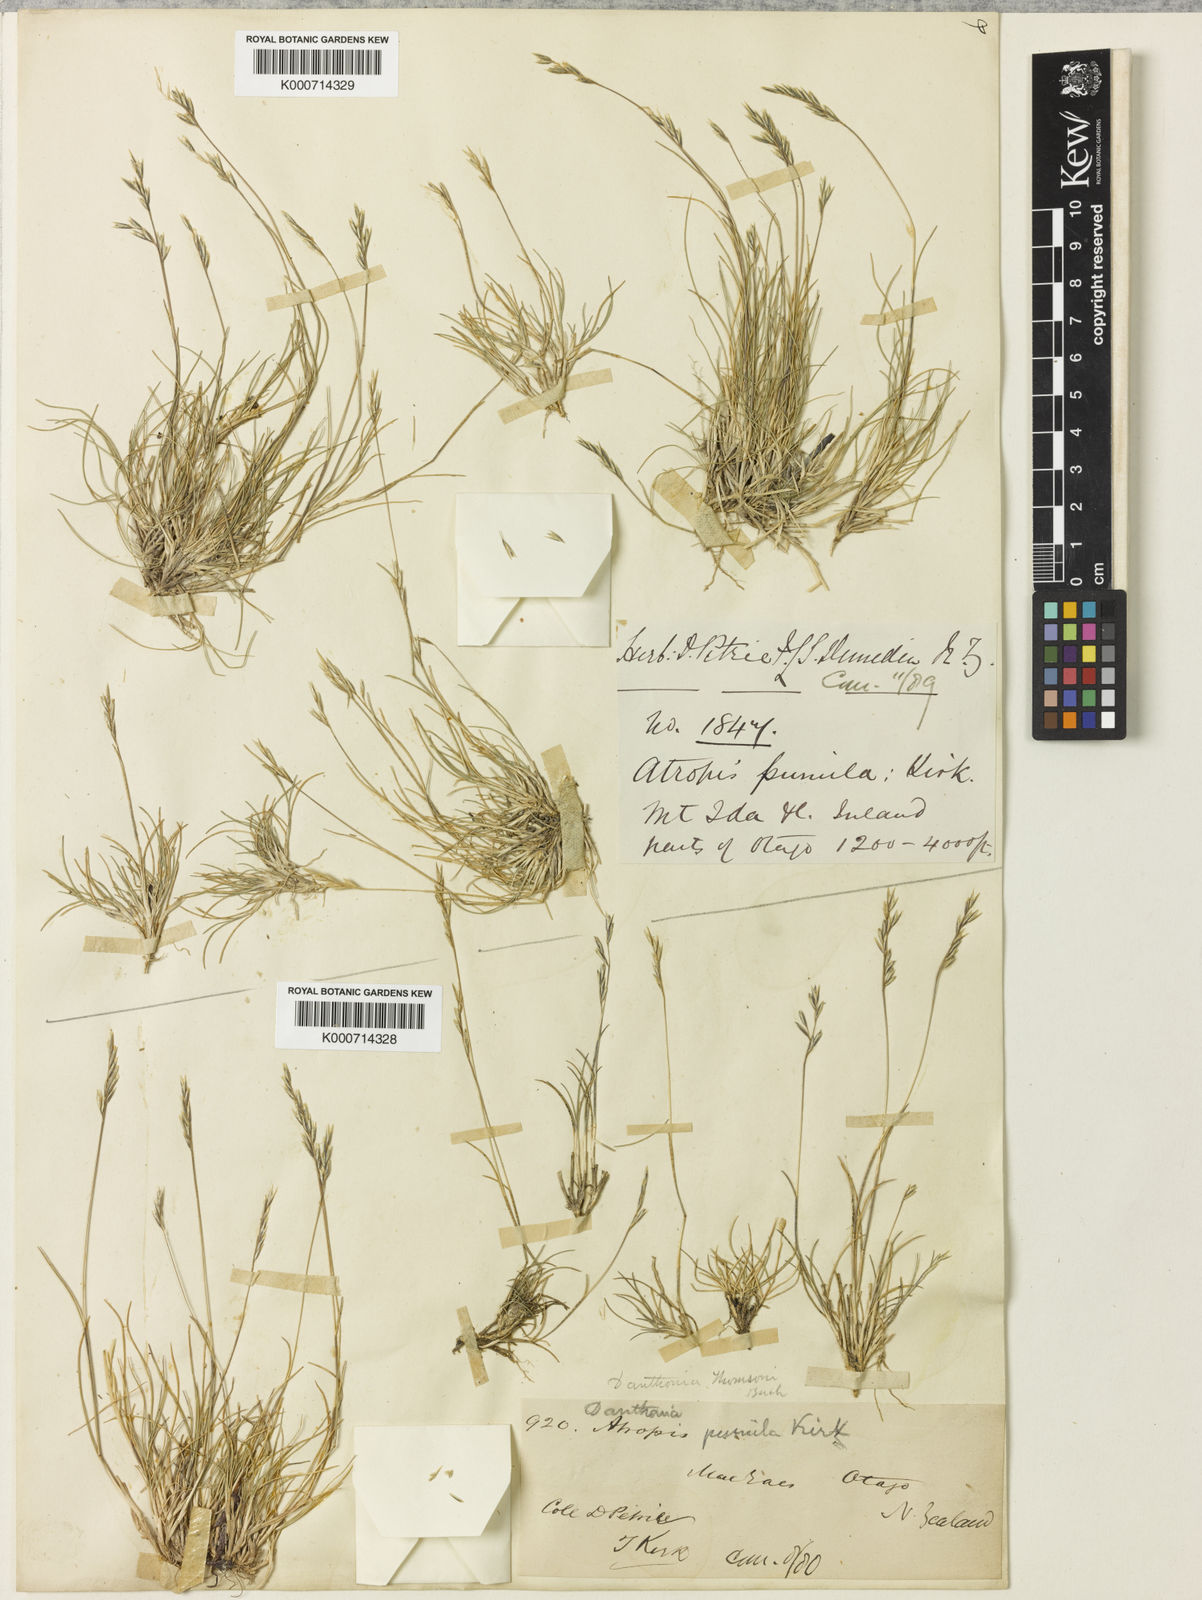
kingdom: Plantae
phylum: Tracheophyta
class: Liliopsida
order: Poales
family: Poaceae
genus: Rytidosperma
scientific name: Rytidosperma pumilum
